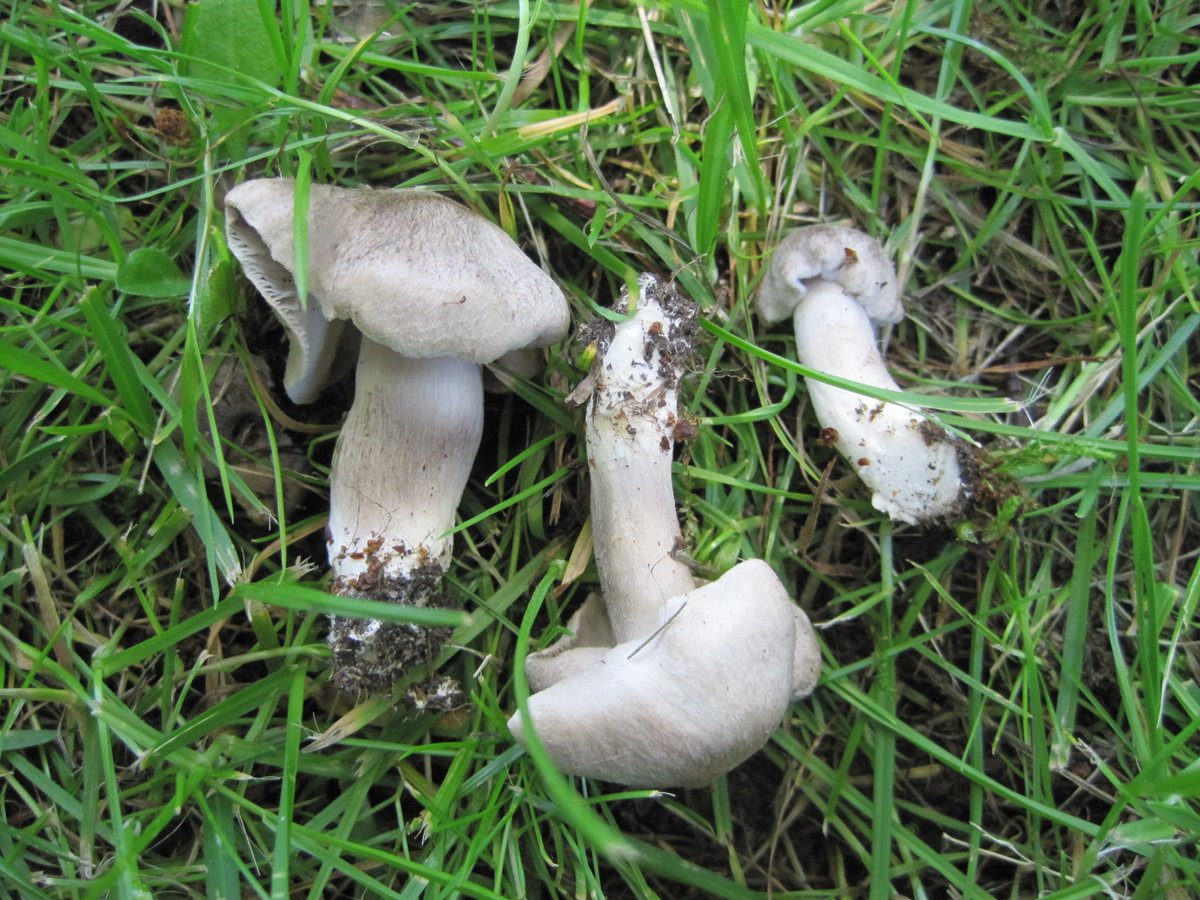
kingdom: Fungi
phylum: Basidiomycota
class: Agaricomycetes
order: Agaricales
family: Tricholomataceae
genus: Tricholoma
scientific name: Tricholoma scalpturatum
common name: gulplettet ridderhat
